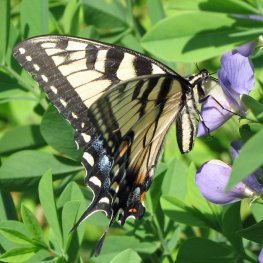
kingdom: Animalia
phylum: Arthropoda
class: Insecta
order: Lepidoptera
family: Papilionidae
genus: Pterourus
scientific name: Pterourus glaucus
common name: Eastern Tiger Swallowtail
